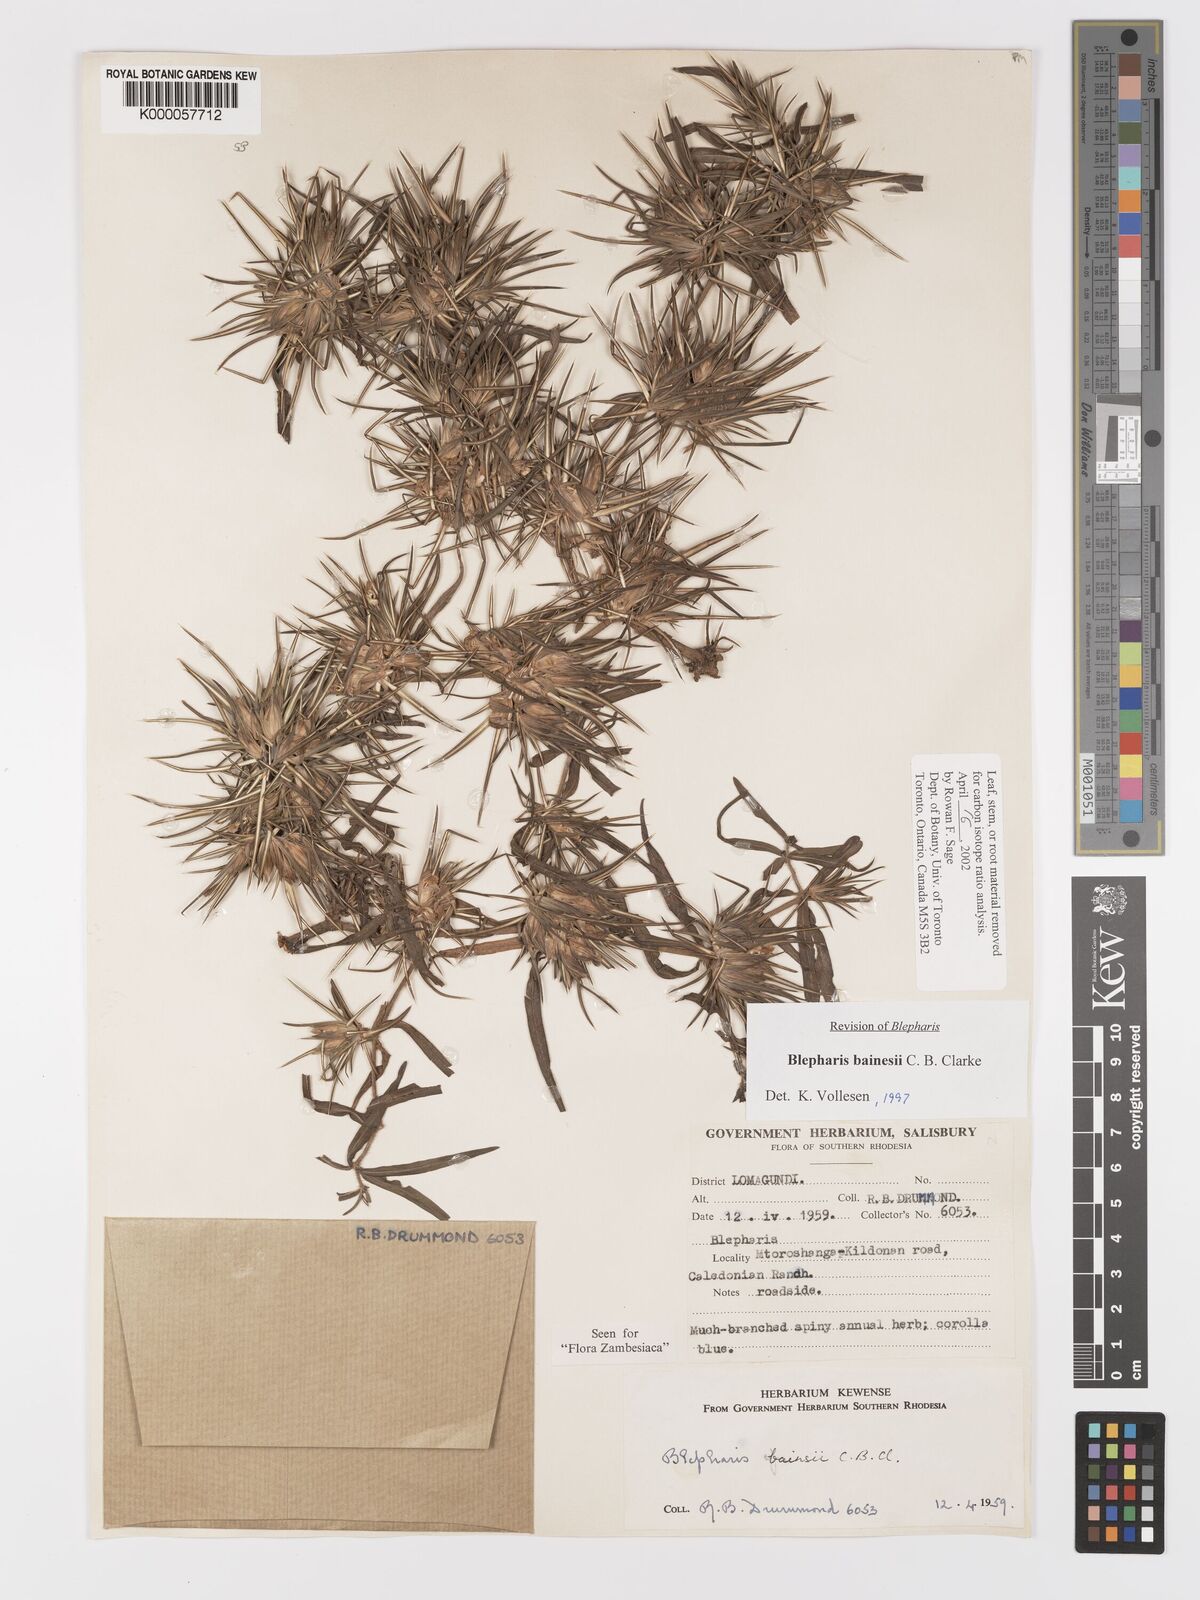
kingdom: Plantae
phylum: Tracheophyta
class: Magnoliopsida
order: Lamiales
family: Acanthaceae
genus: Blepharis
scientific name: Blepharis bainesii
